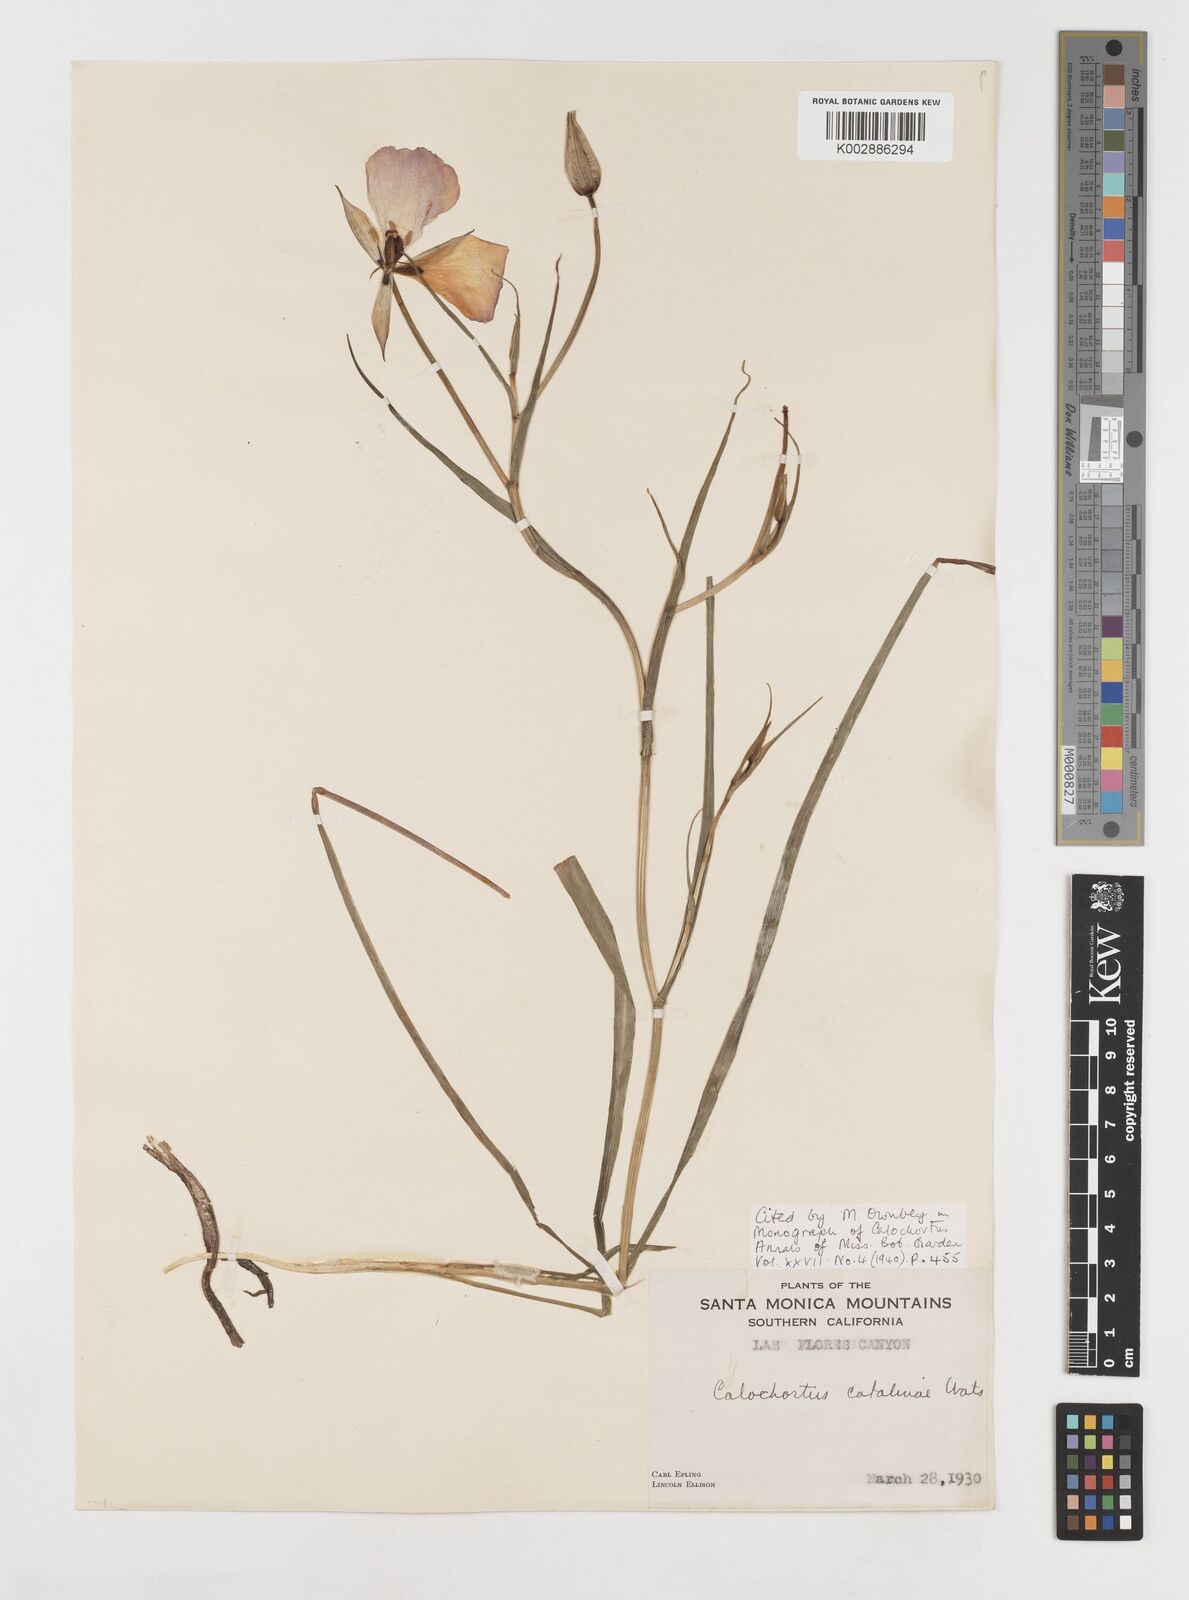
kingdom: Plantae
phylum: Tracheophyta
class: Liliopsida
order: Liliales
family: Liliaceae
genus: Calochortus
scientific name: Calochortus catalinae
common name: Catalina mariposa-lily
